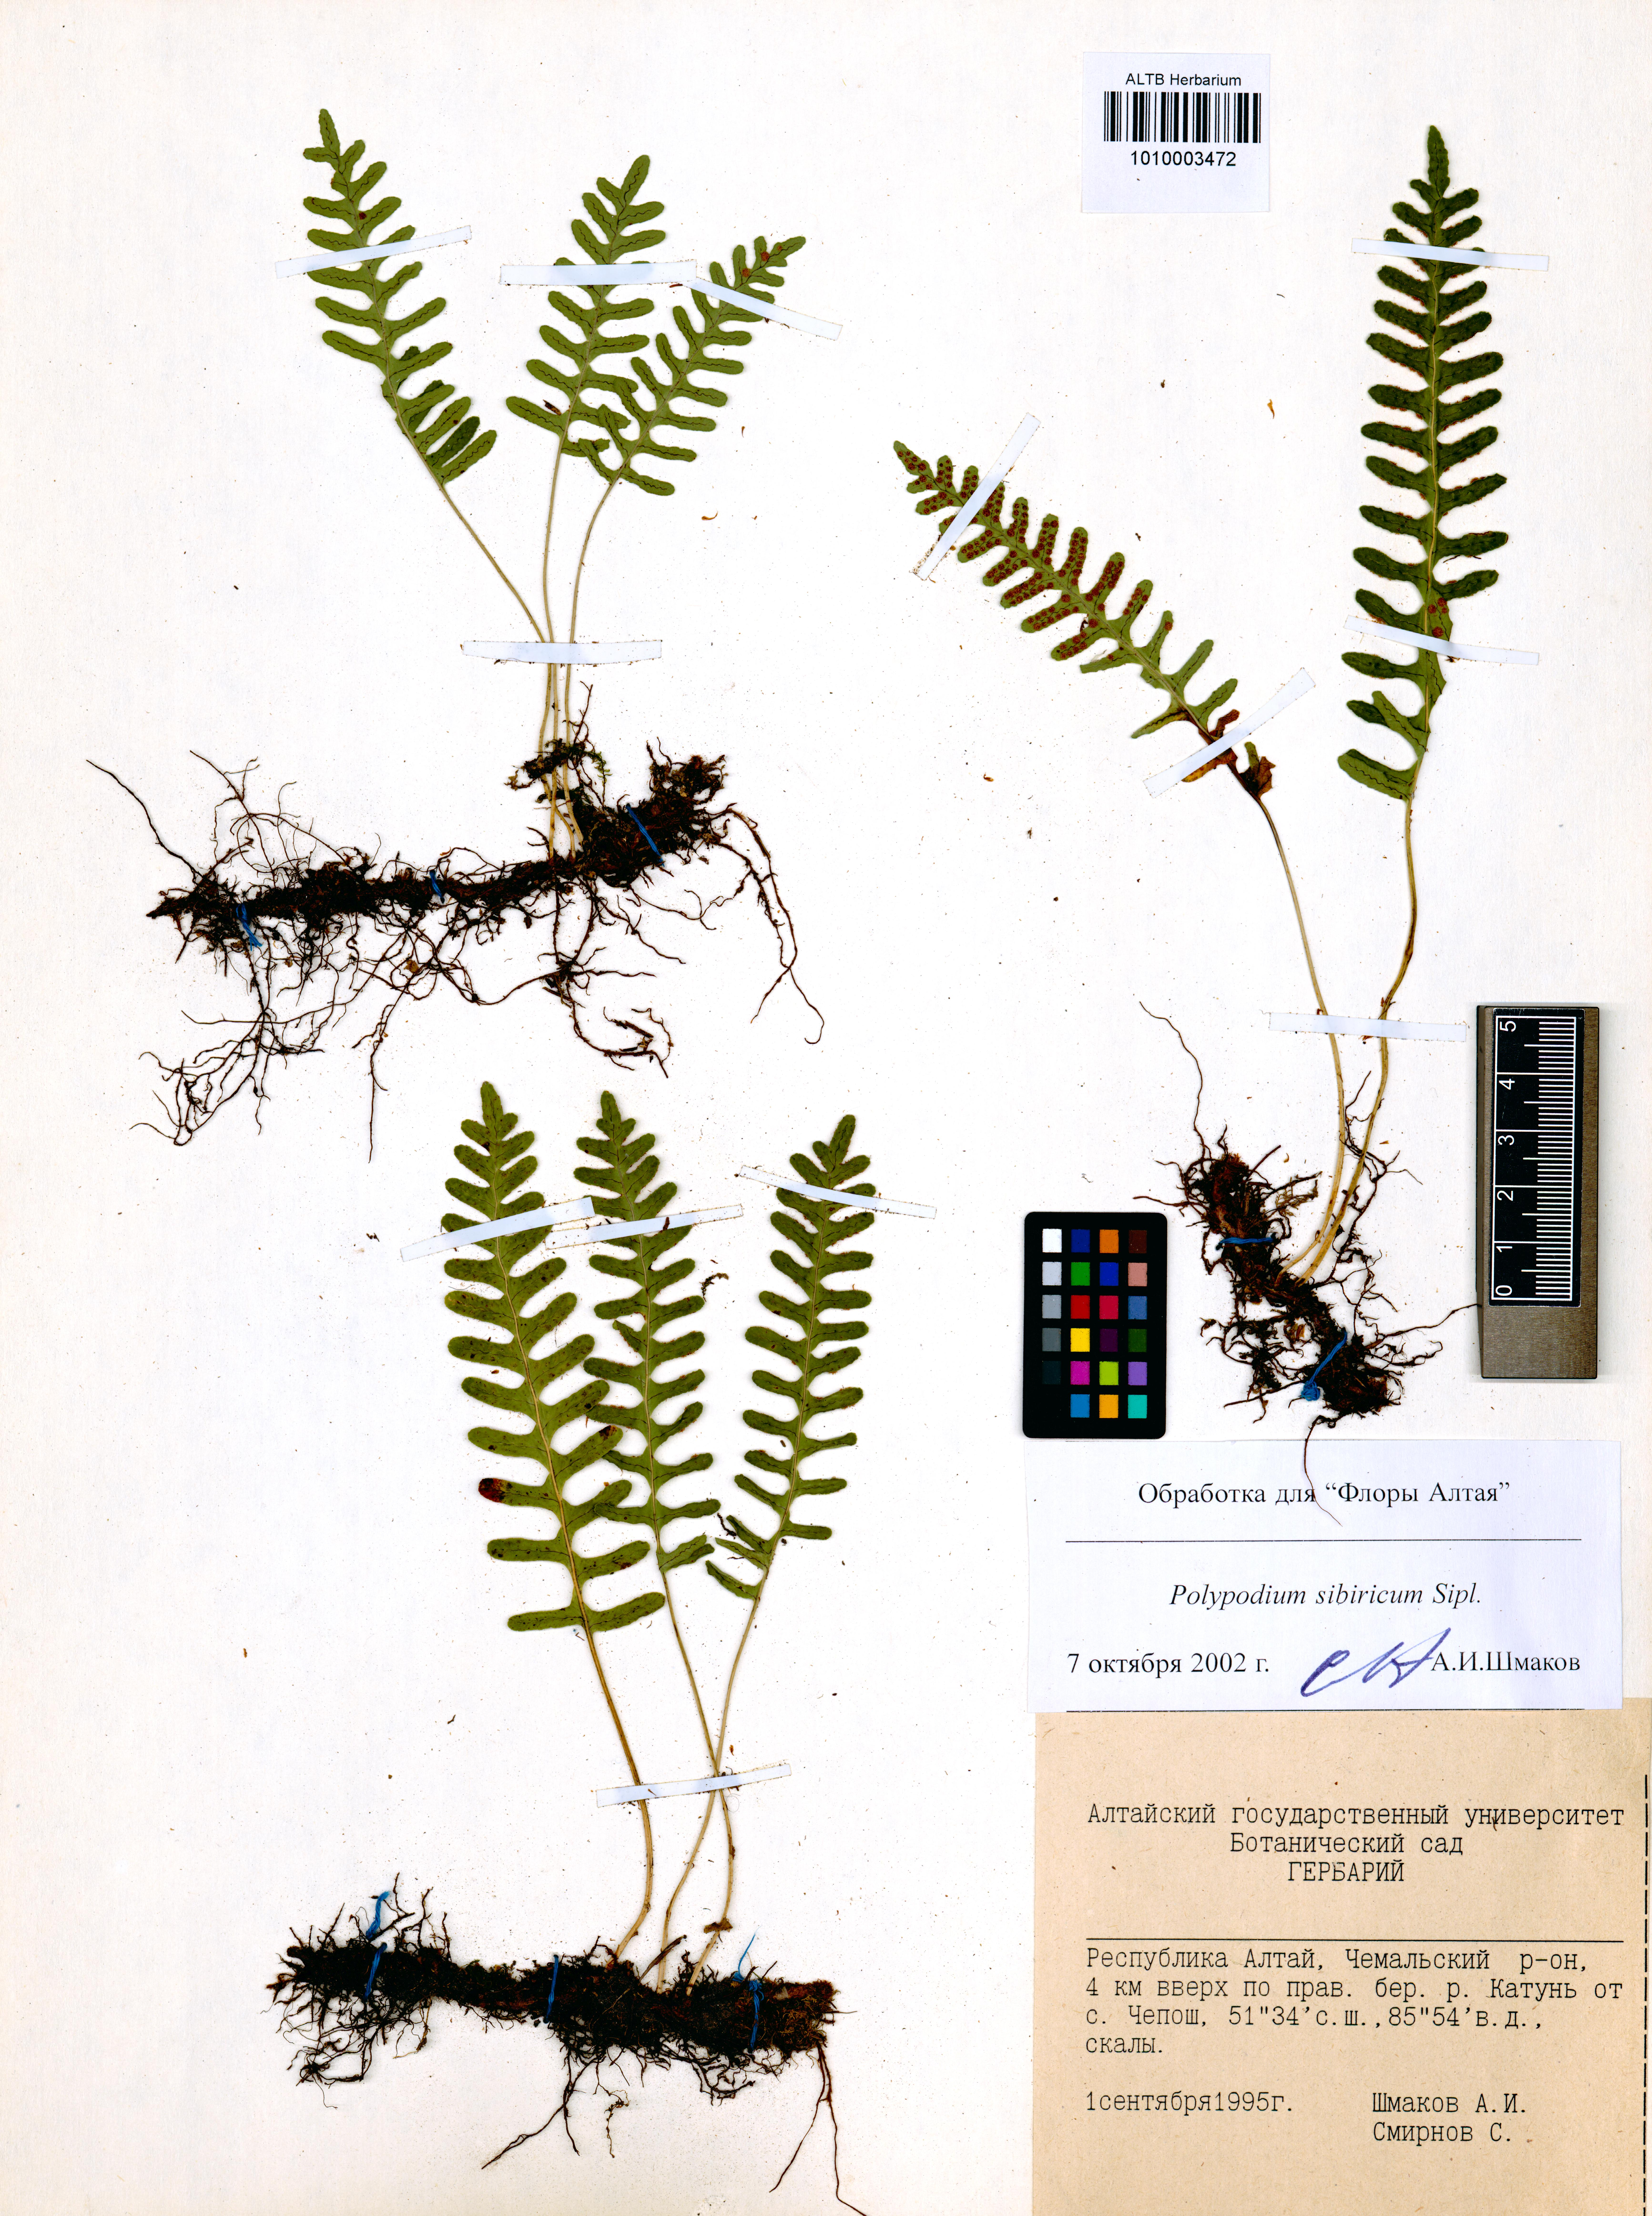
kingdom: Plantae
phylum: Tracheophyta
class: Polypodiopsida
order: Polypodiales
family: Polypodiaceae
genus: Polypodium
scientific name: Polypodium sibiricum
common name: Siberian polypody
